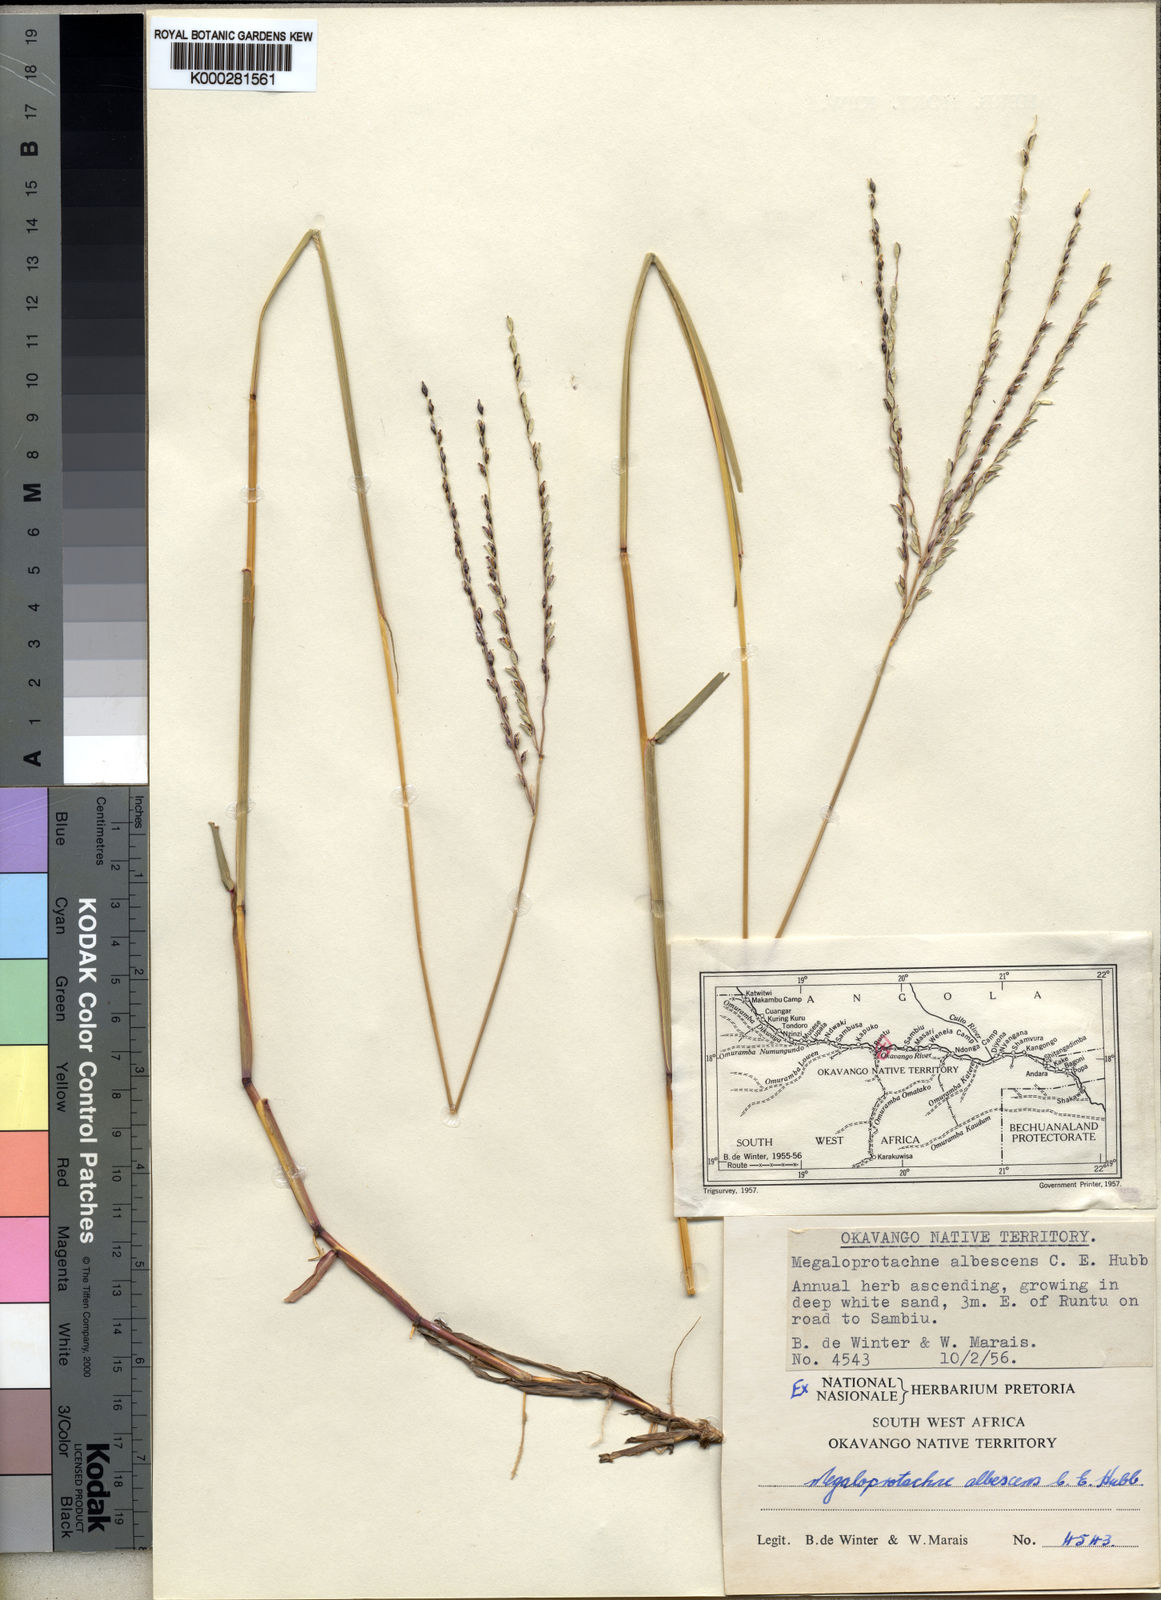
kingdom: Plantae
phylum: Tracheophyta
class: Liliopsida
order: Poales
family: Poaceae
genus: Digitaria
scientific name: Digitaria albescens
